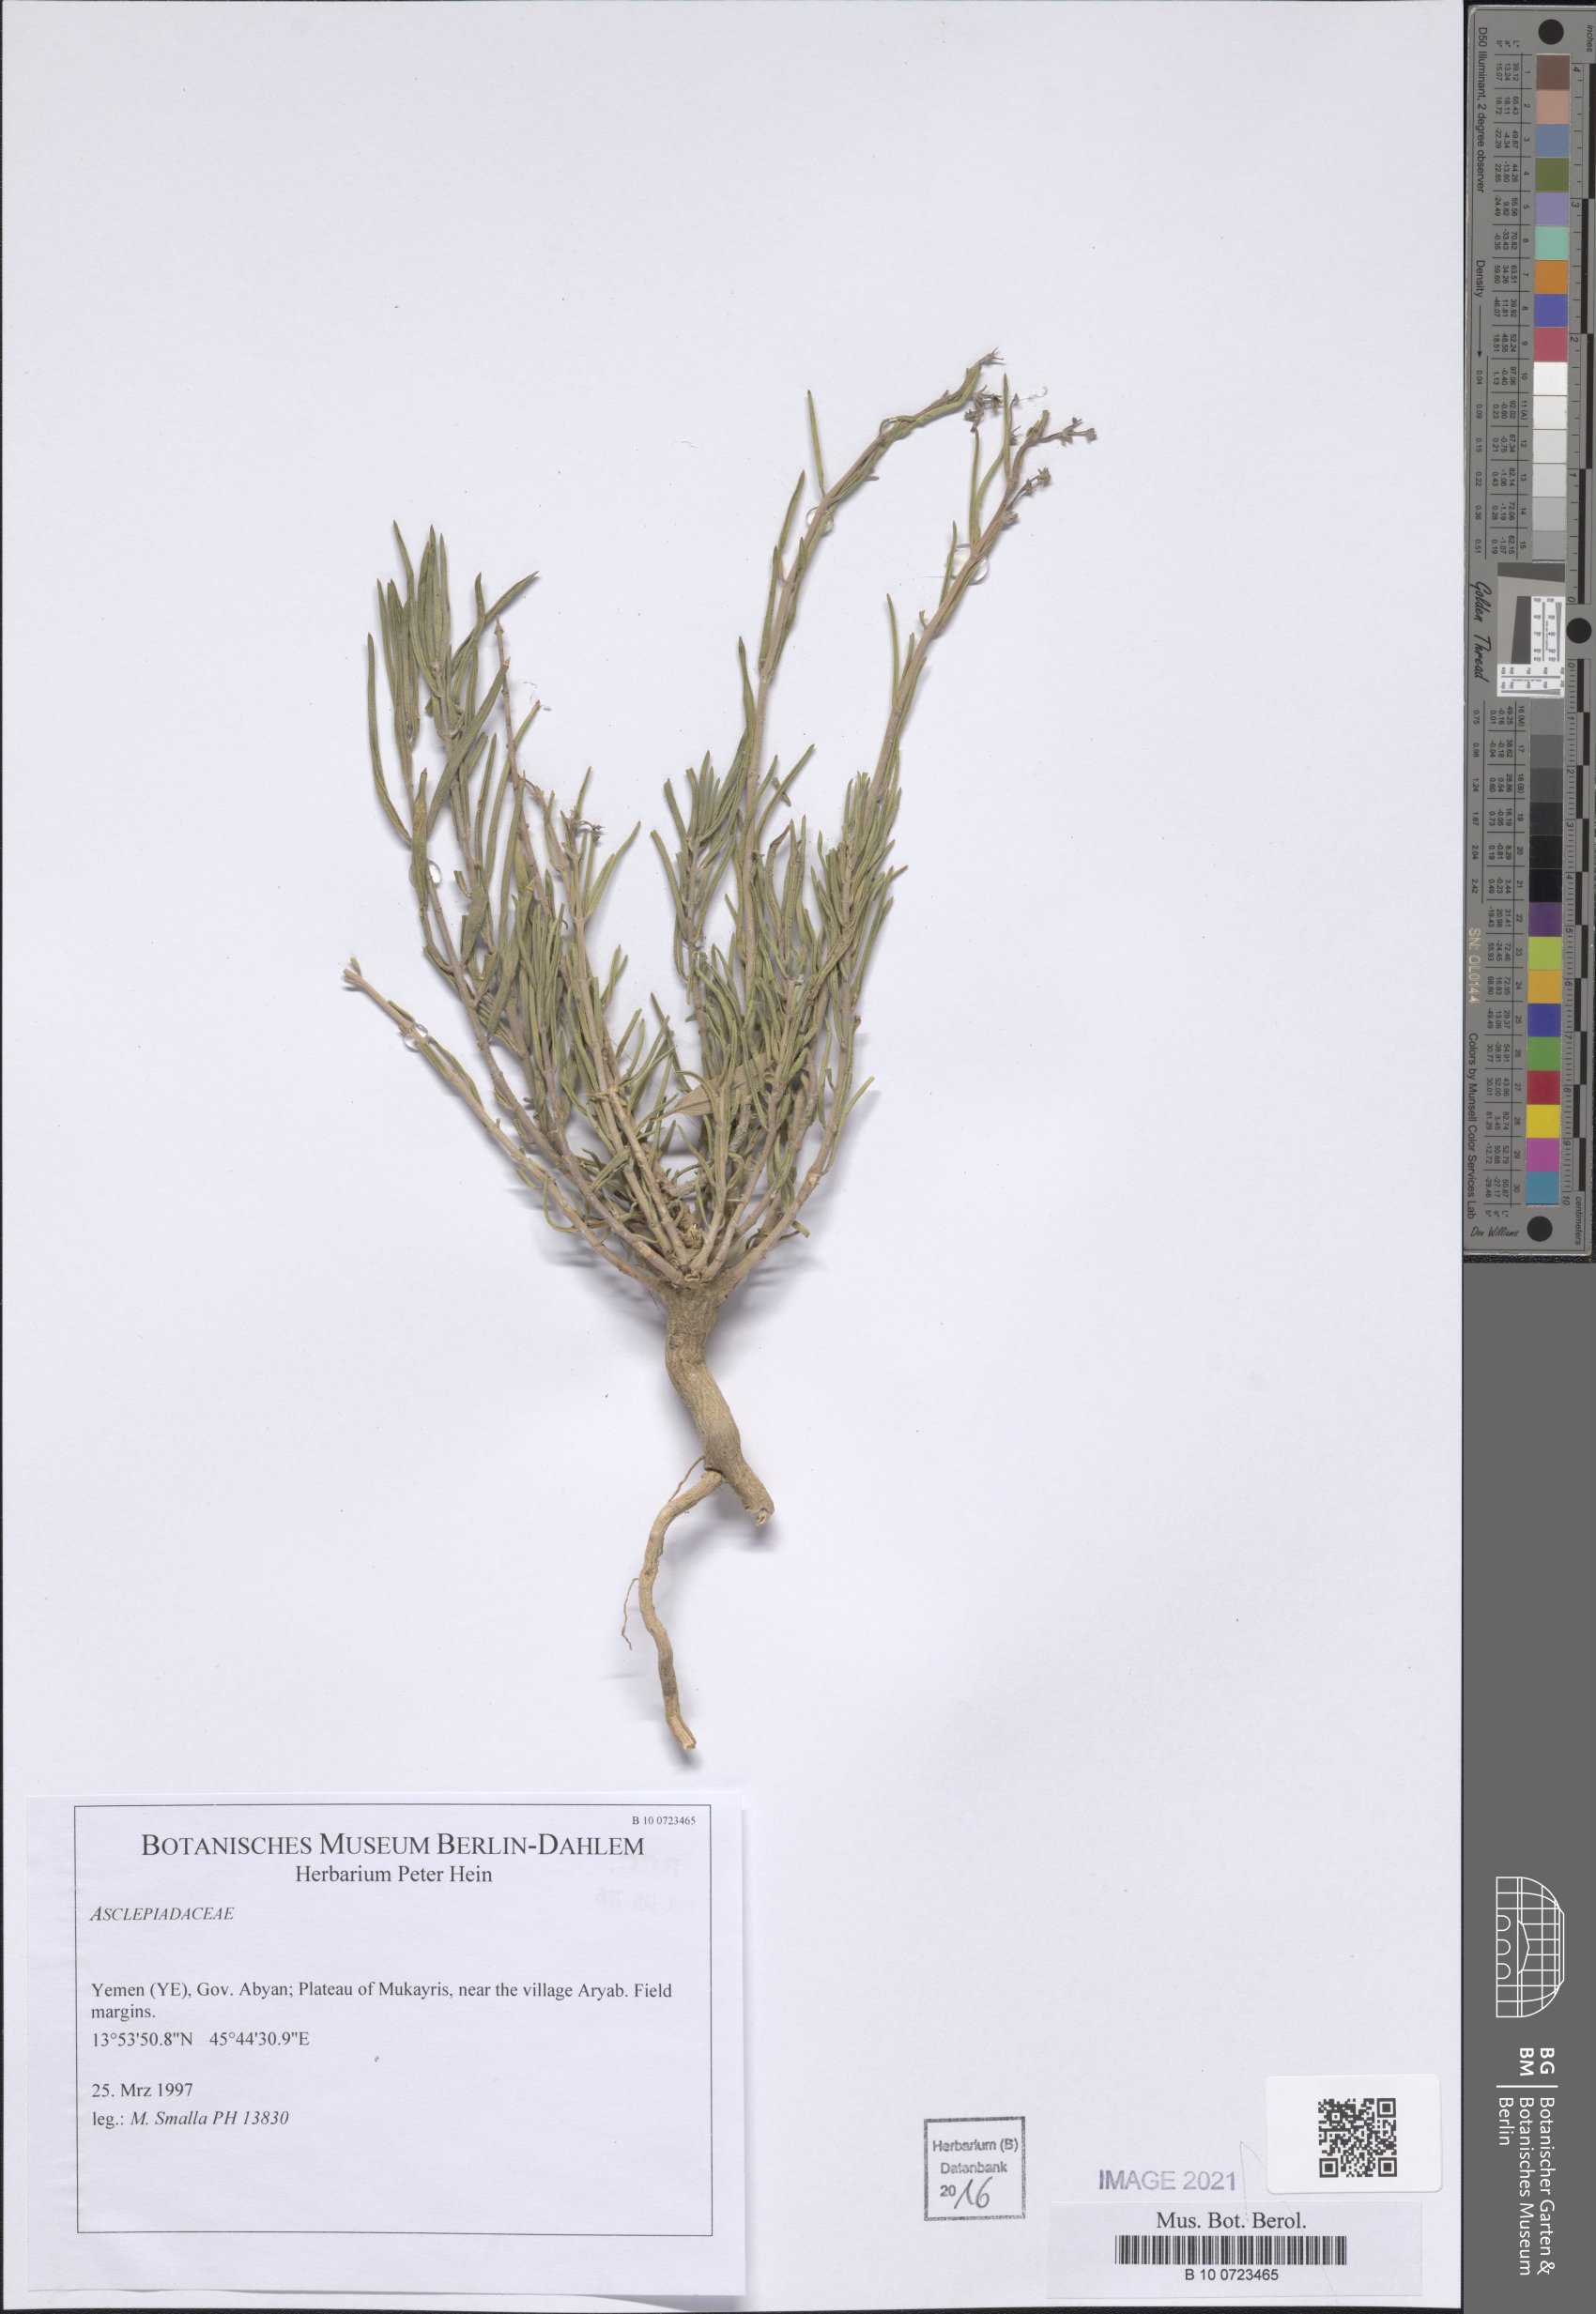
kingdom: Plantae
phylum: Tracheophyta
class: Magnoliopsida
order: Gentianales
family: Apocynaceae
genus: Gomphocarpus
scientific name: Gomphocarpus sinaicus
